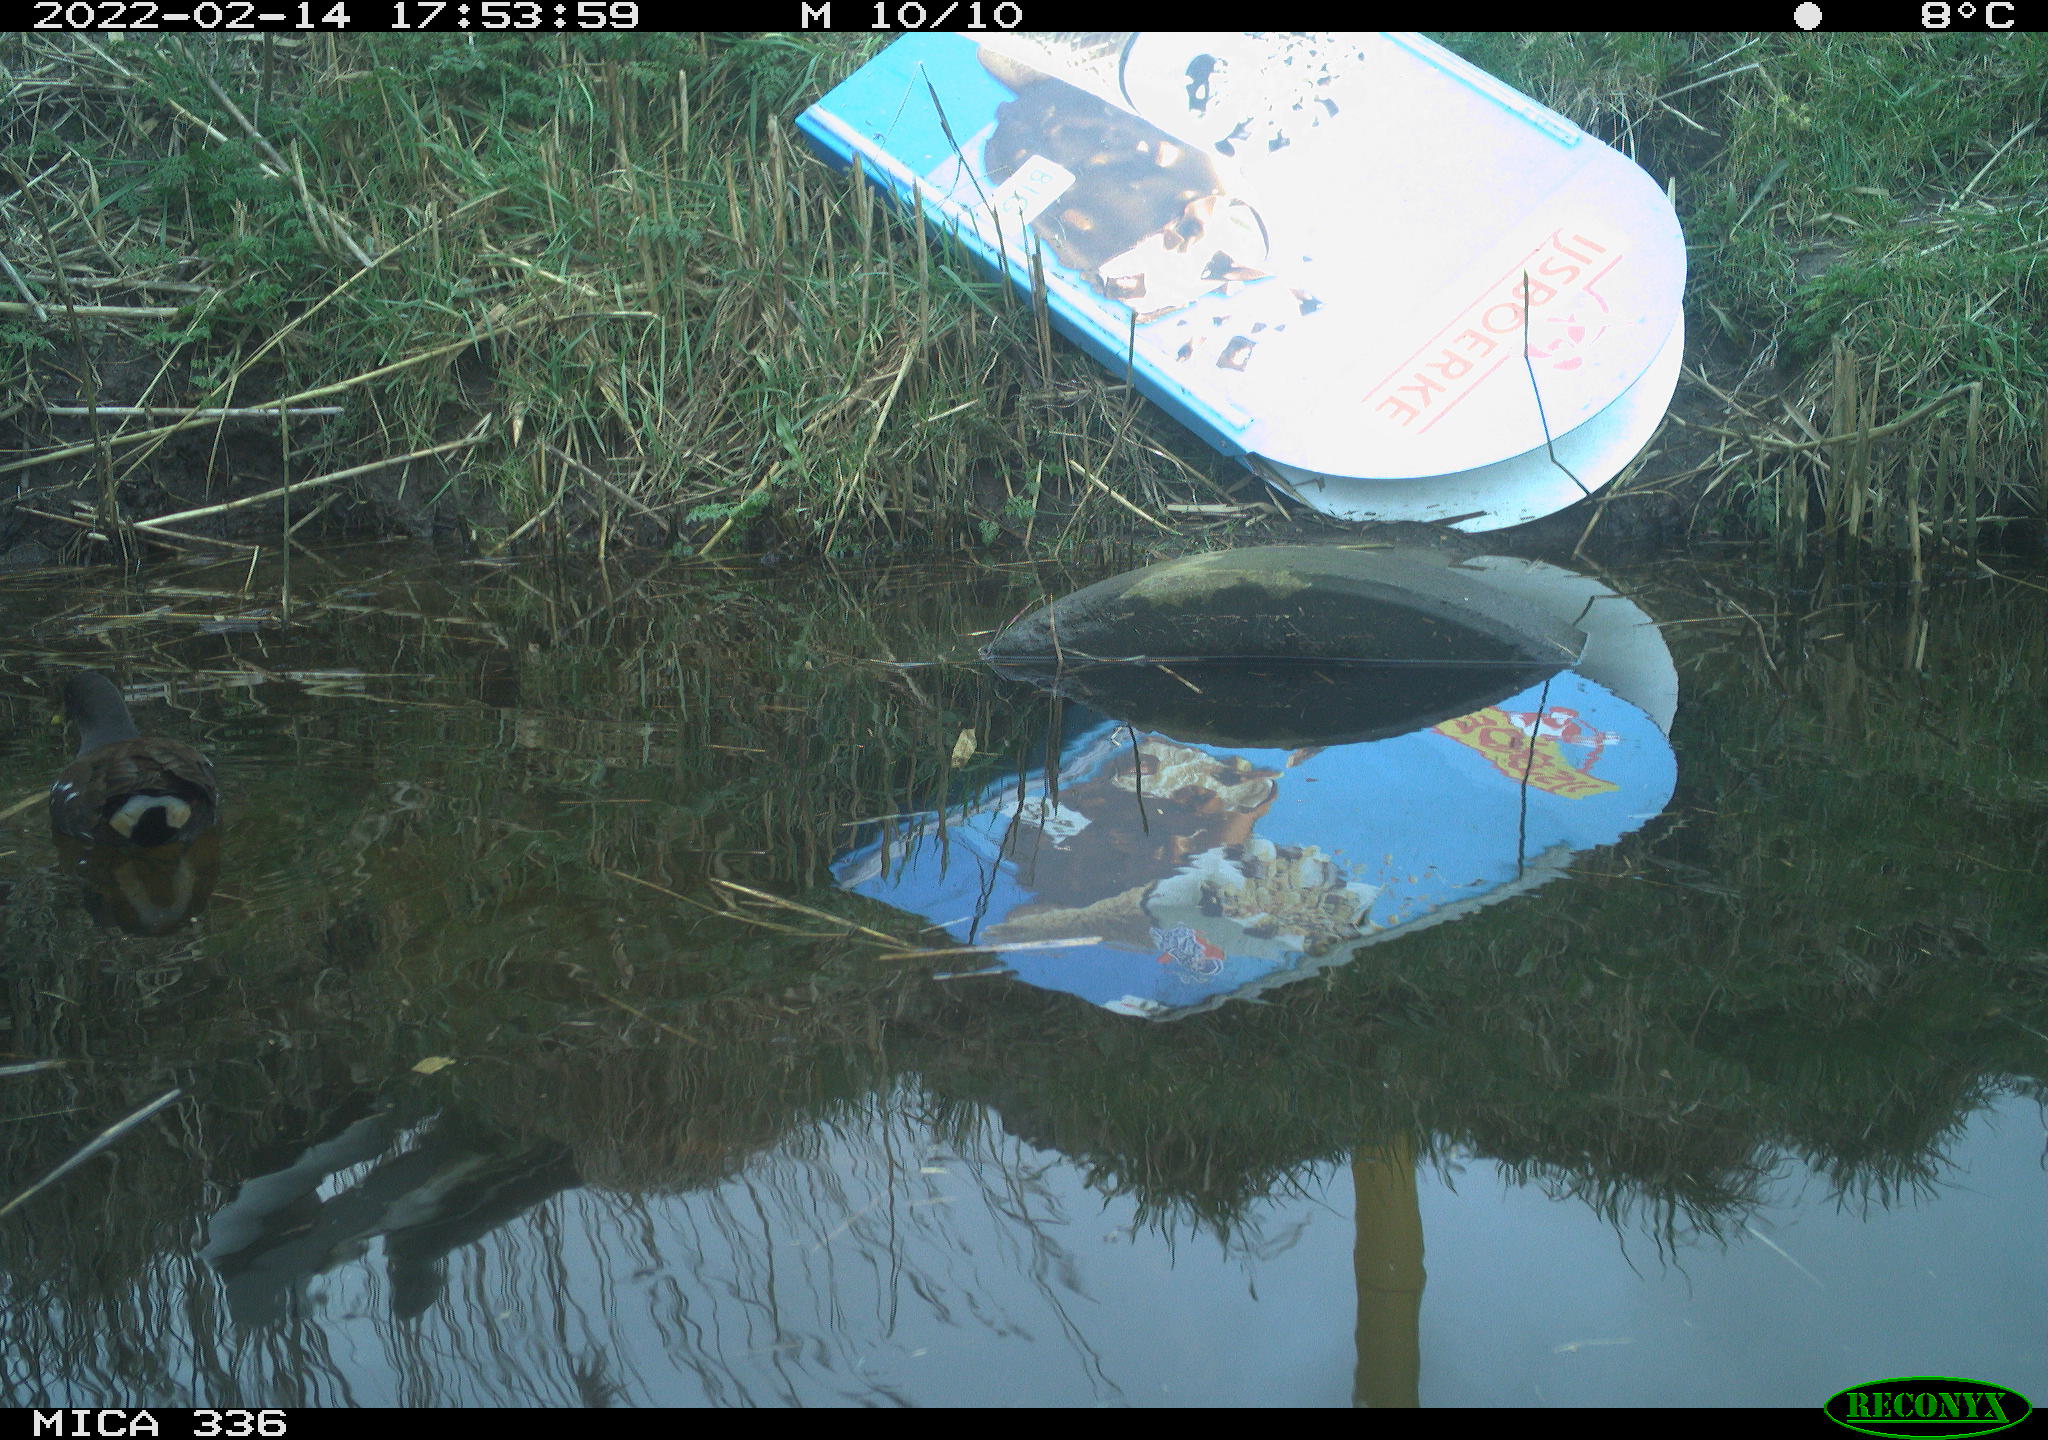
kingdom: Animalia
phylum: Chordata
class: Aves
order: Gruiformes
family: Rallidae
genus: Gallinula
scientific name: Gallinula chloropus
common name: Common moorhen
